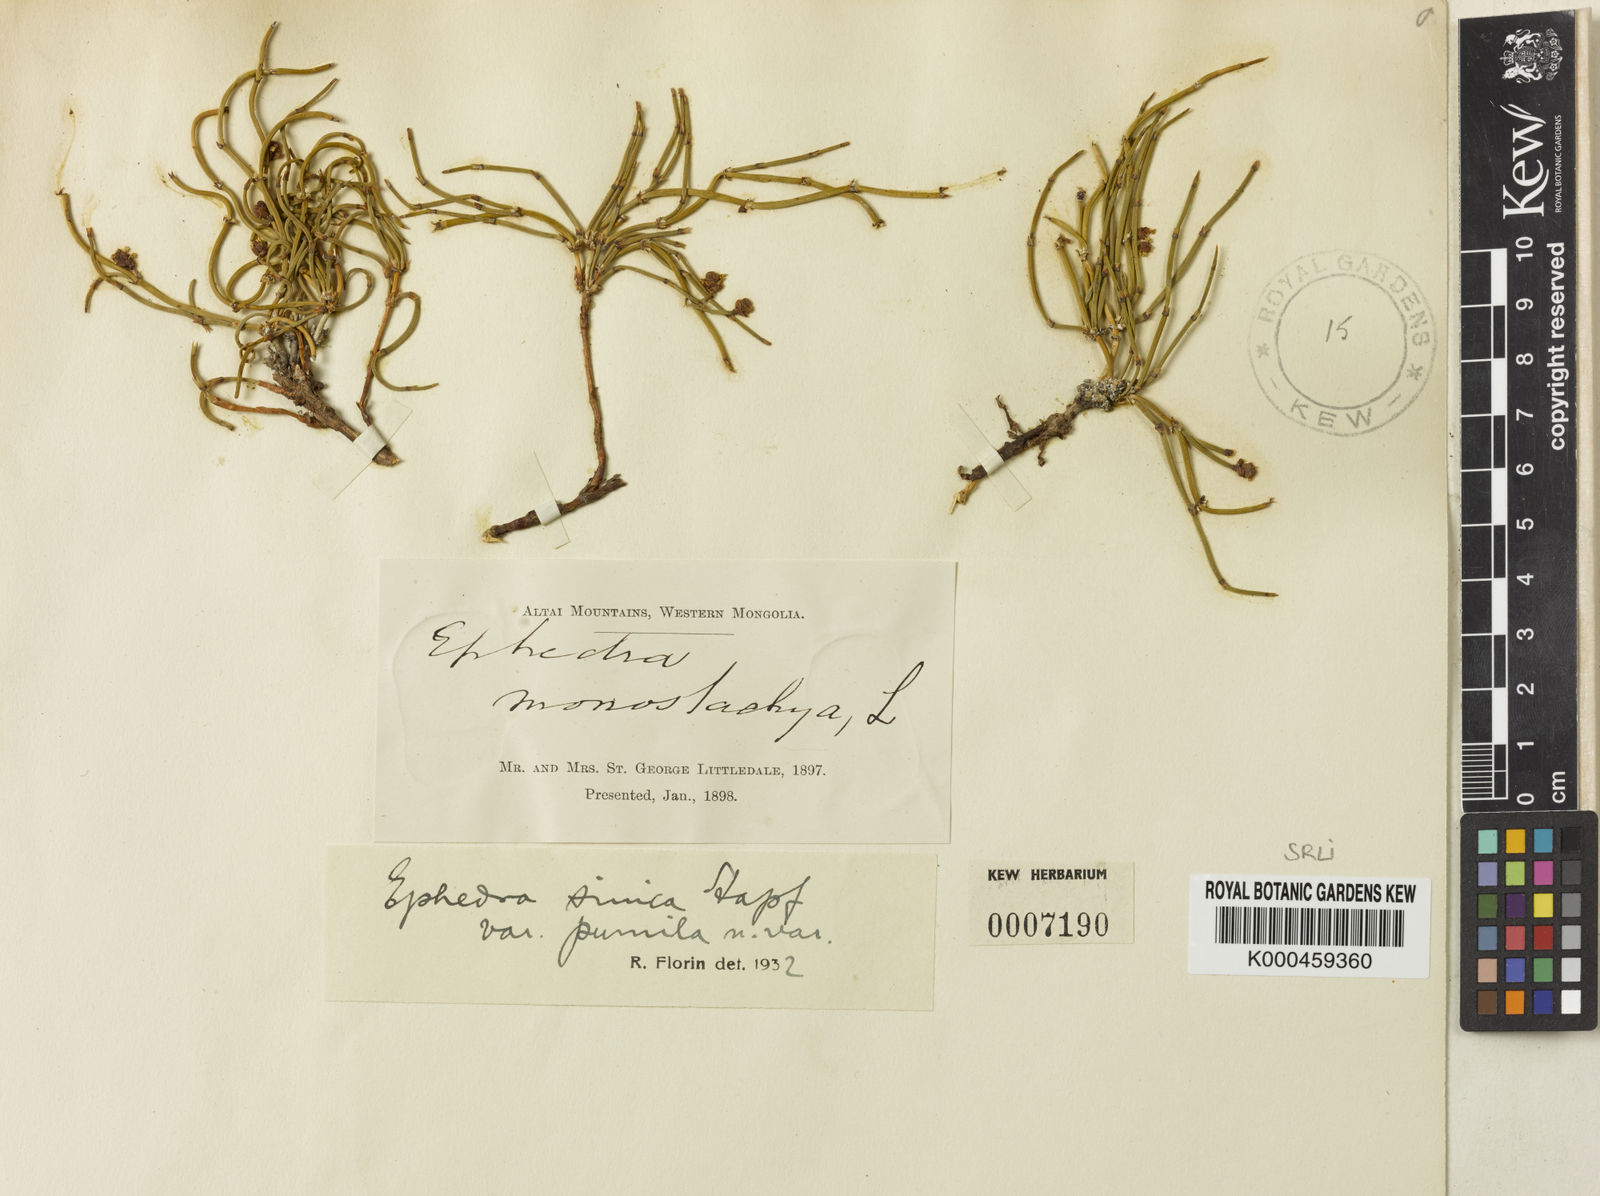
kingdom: Plantae
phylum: Tracheophyta
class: Gnetopsida
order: Ephedrales
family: Ephedraceae
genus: Ephedra
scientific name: Ephedra sinica
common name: Chinese ephedra
